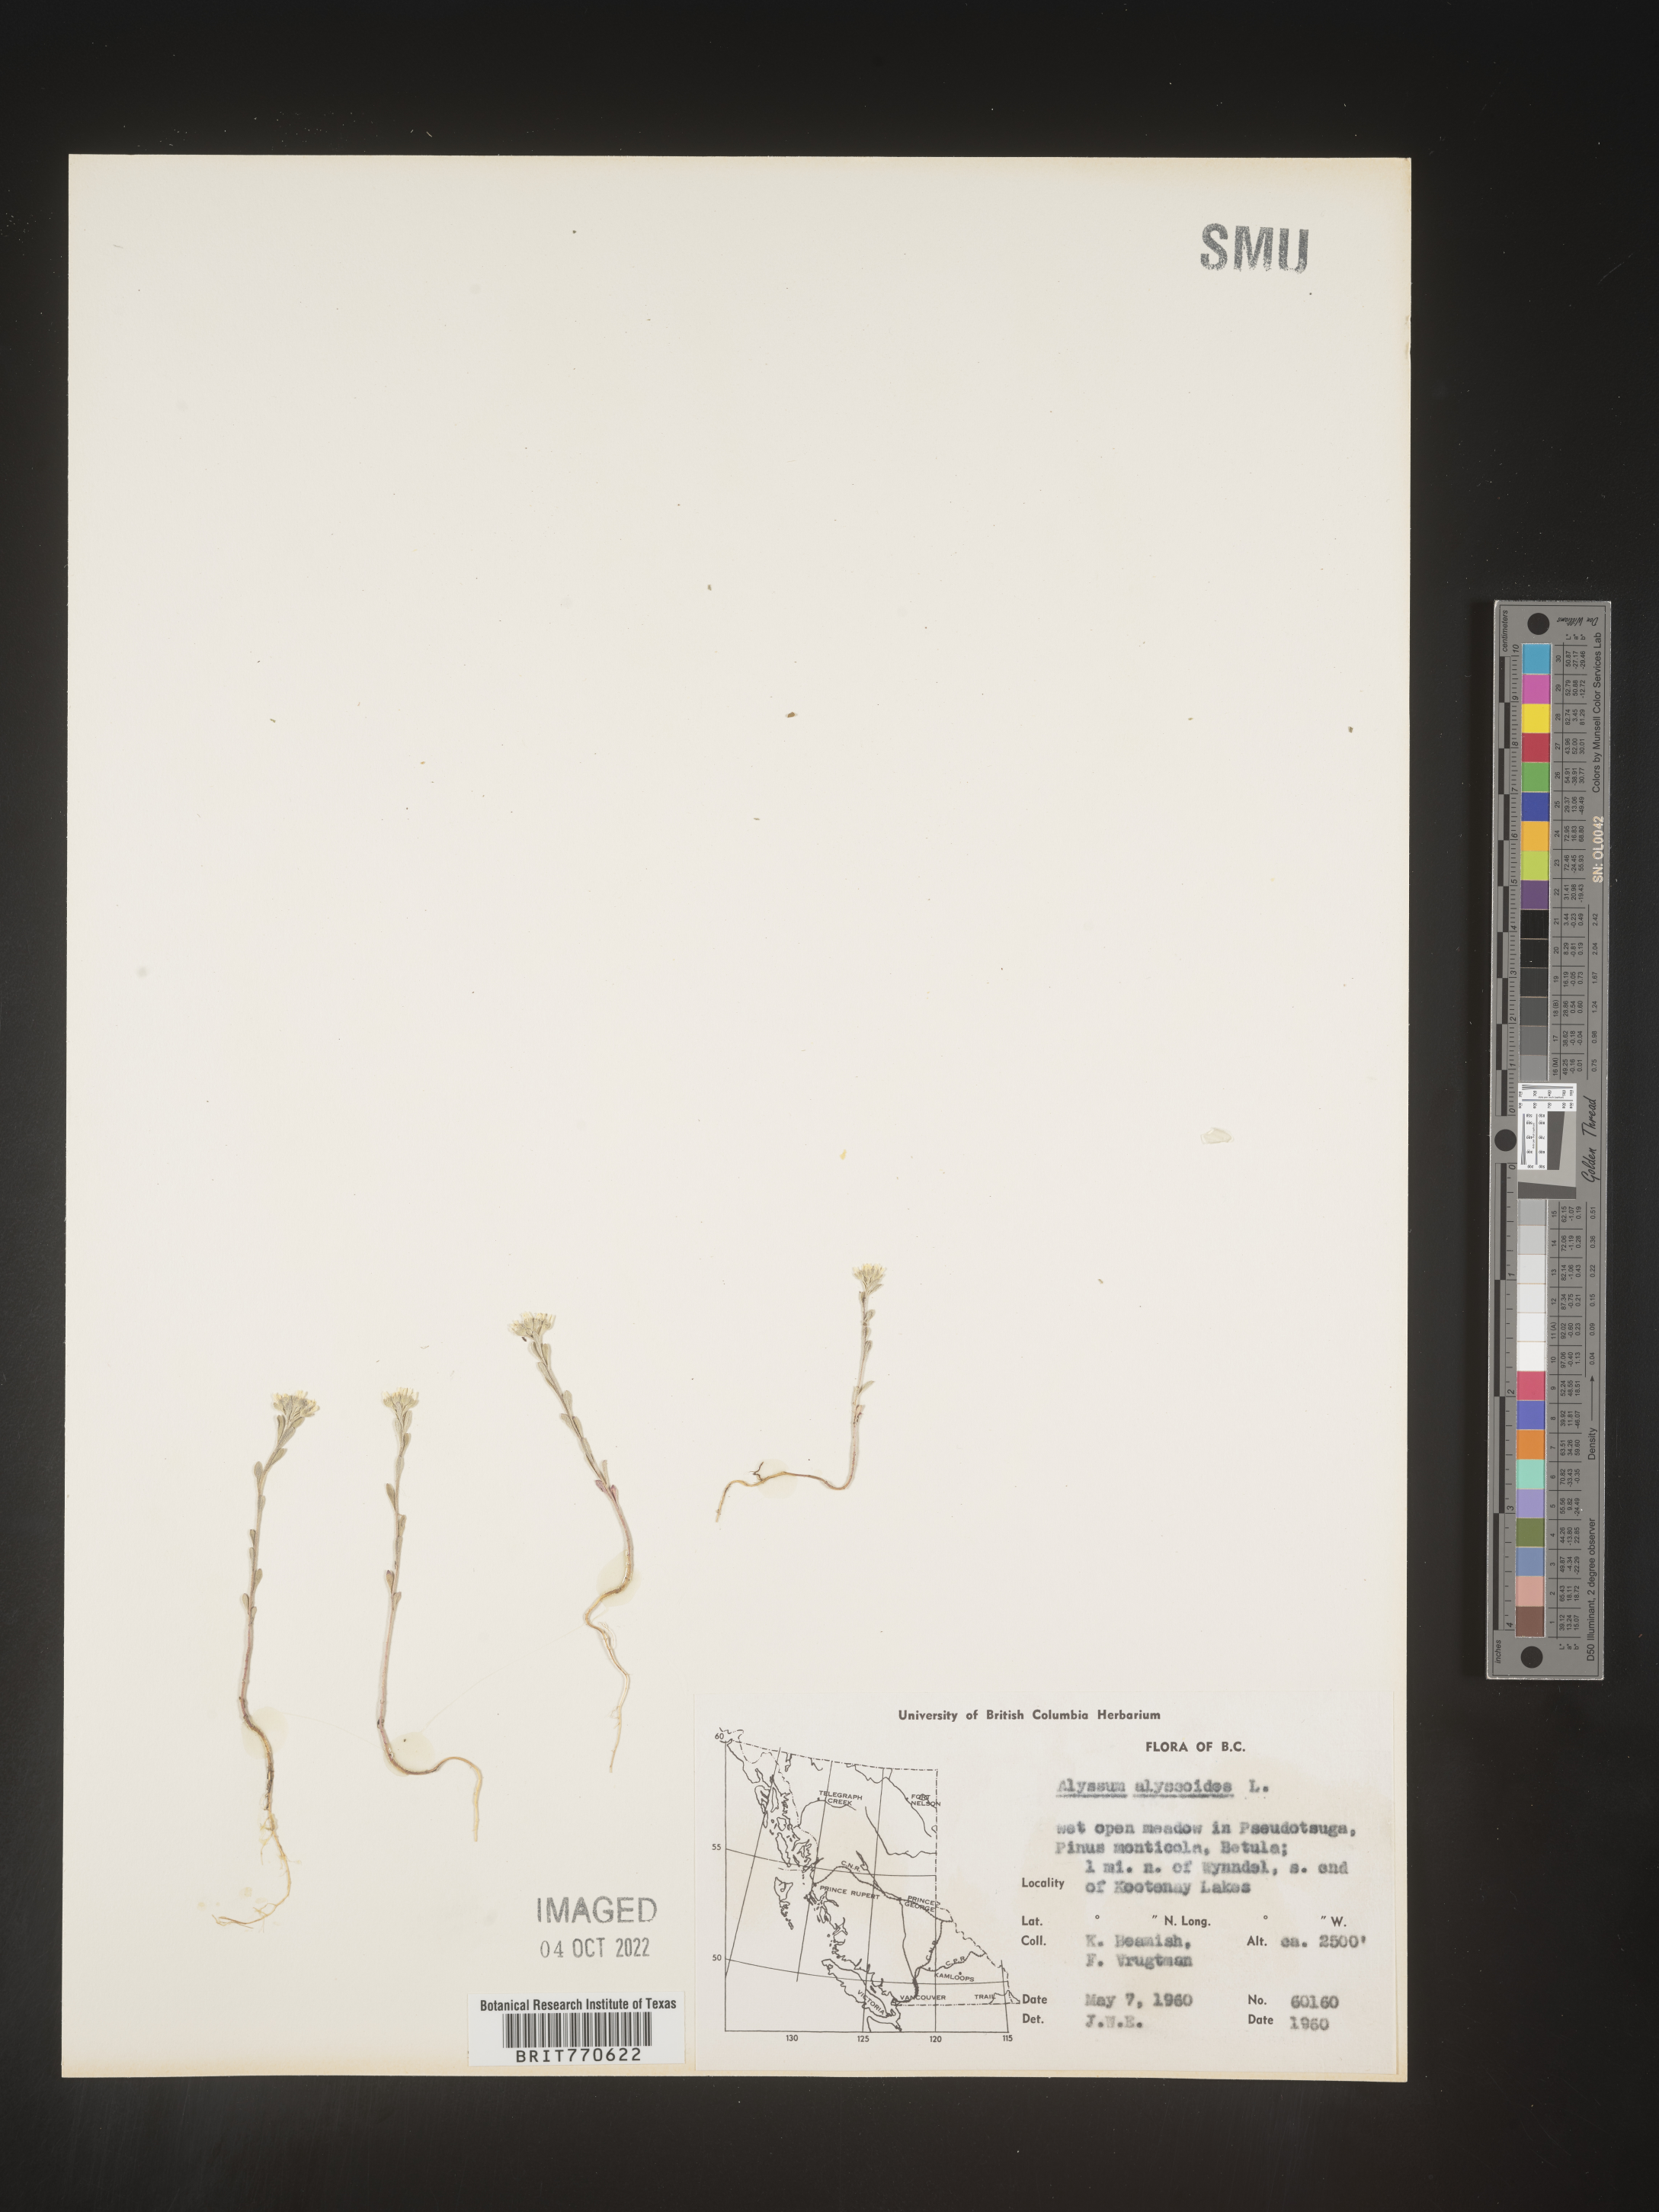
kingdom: Plantae
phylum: Tracheophyta
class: Magnoliopsida
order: Brassicales
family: Brassicaceae
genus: Alyssum
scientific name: Alyssum
